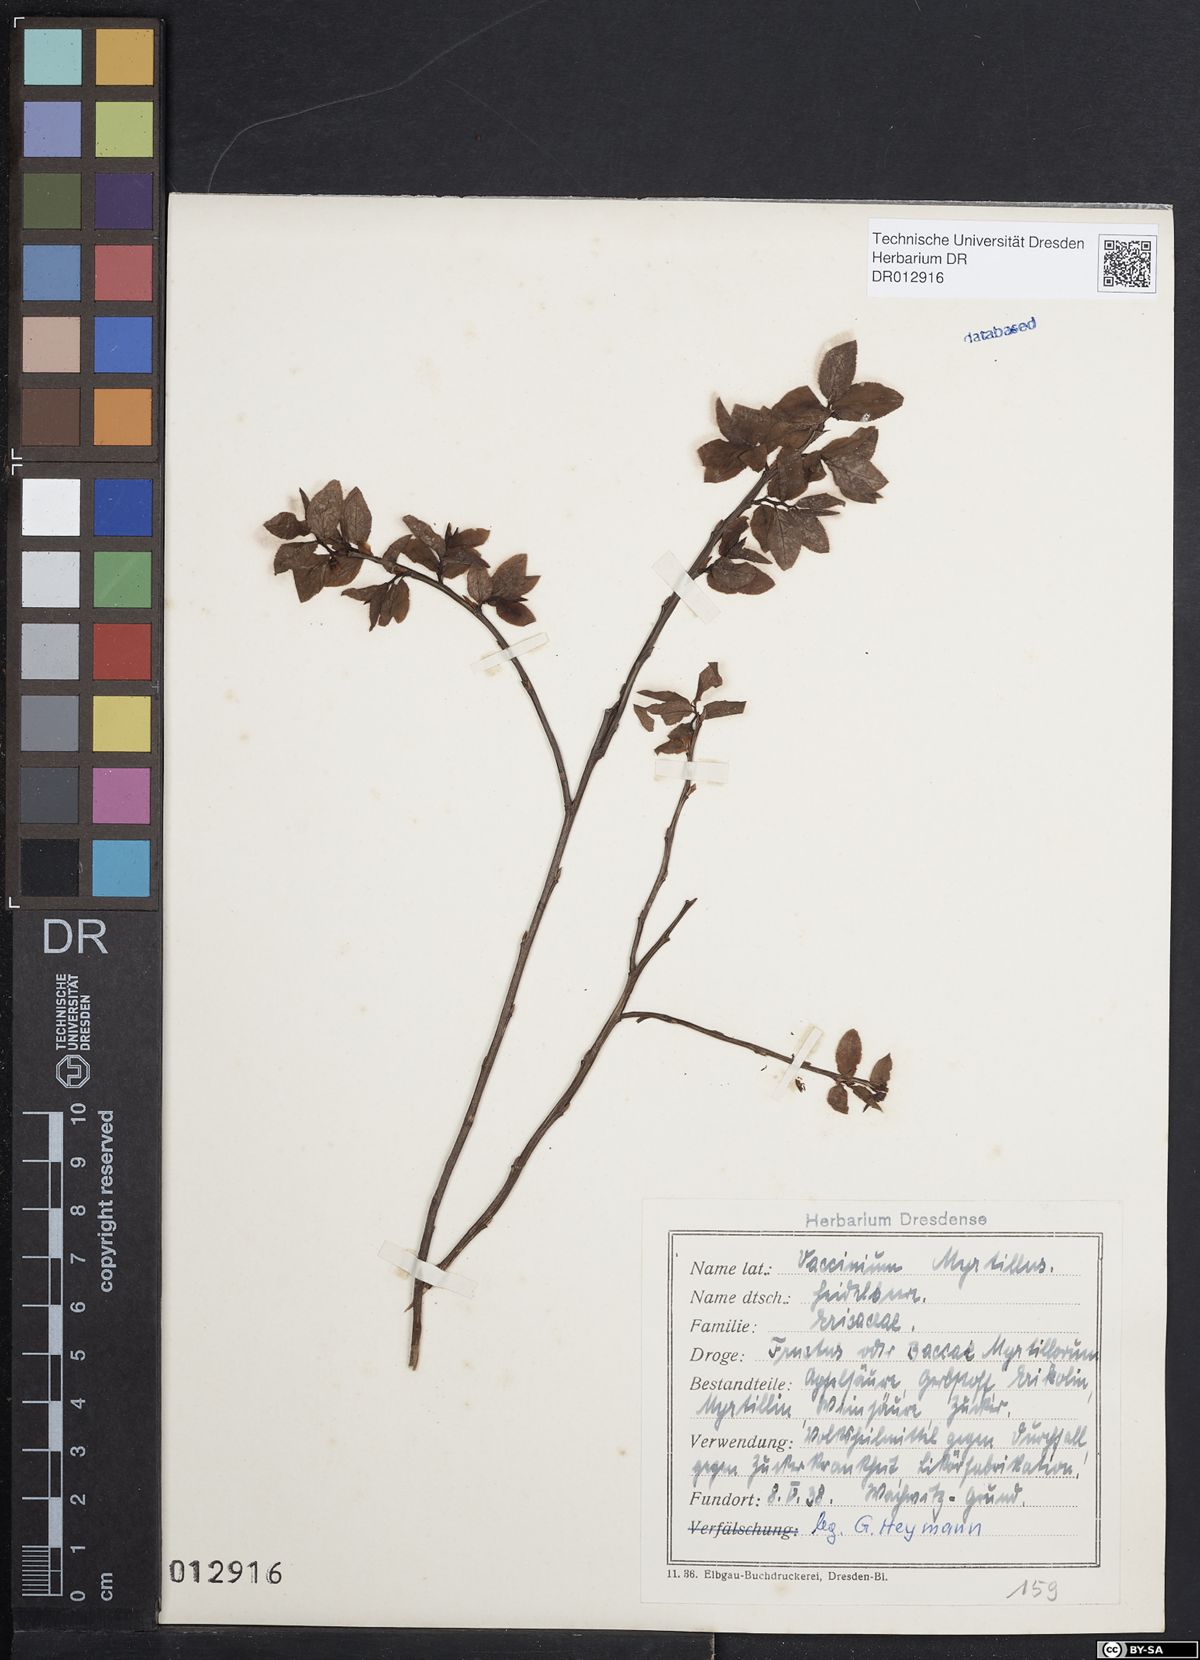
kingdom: Plantae
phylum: Tracheophyta
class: Magnoliopsida
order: Ericales
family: Ericaceae
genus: Vaccinium
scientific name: Vaccinium myrtillus
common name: Bilberry
